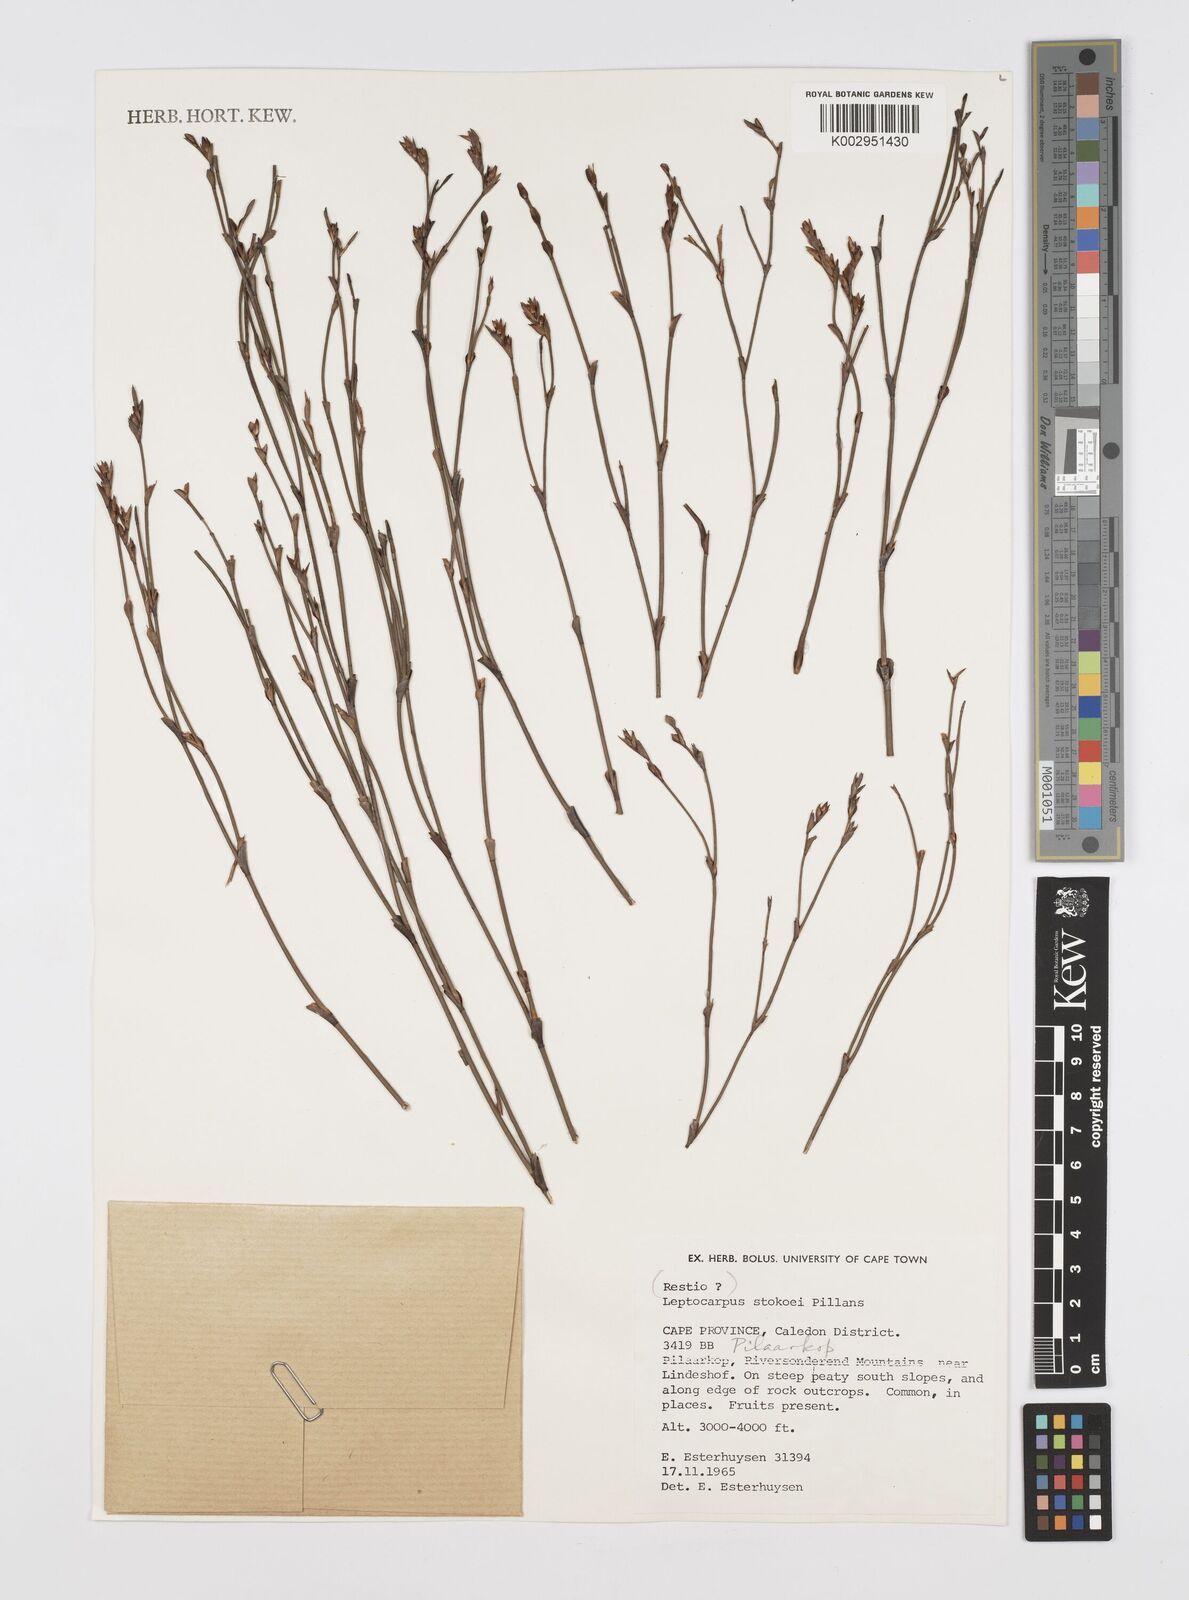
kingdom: Plantae
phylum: Tracheophyta
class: Liliopsida
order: Poales
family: Restionaceae
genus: Restio
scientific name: Restio pillansii
